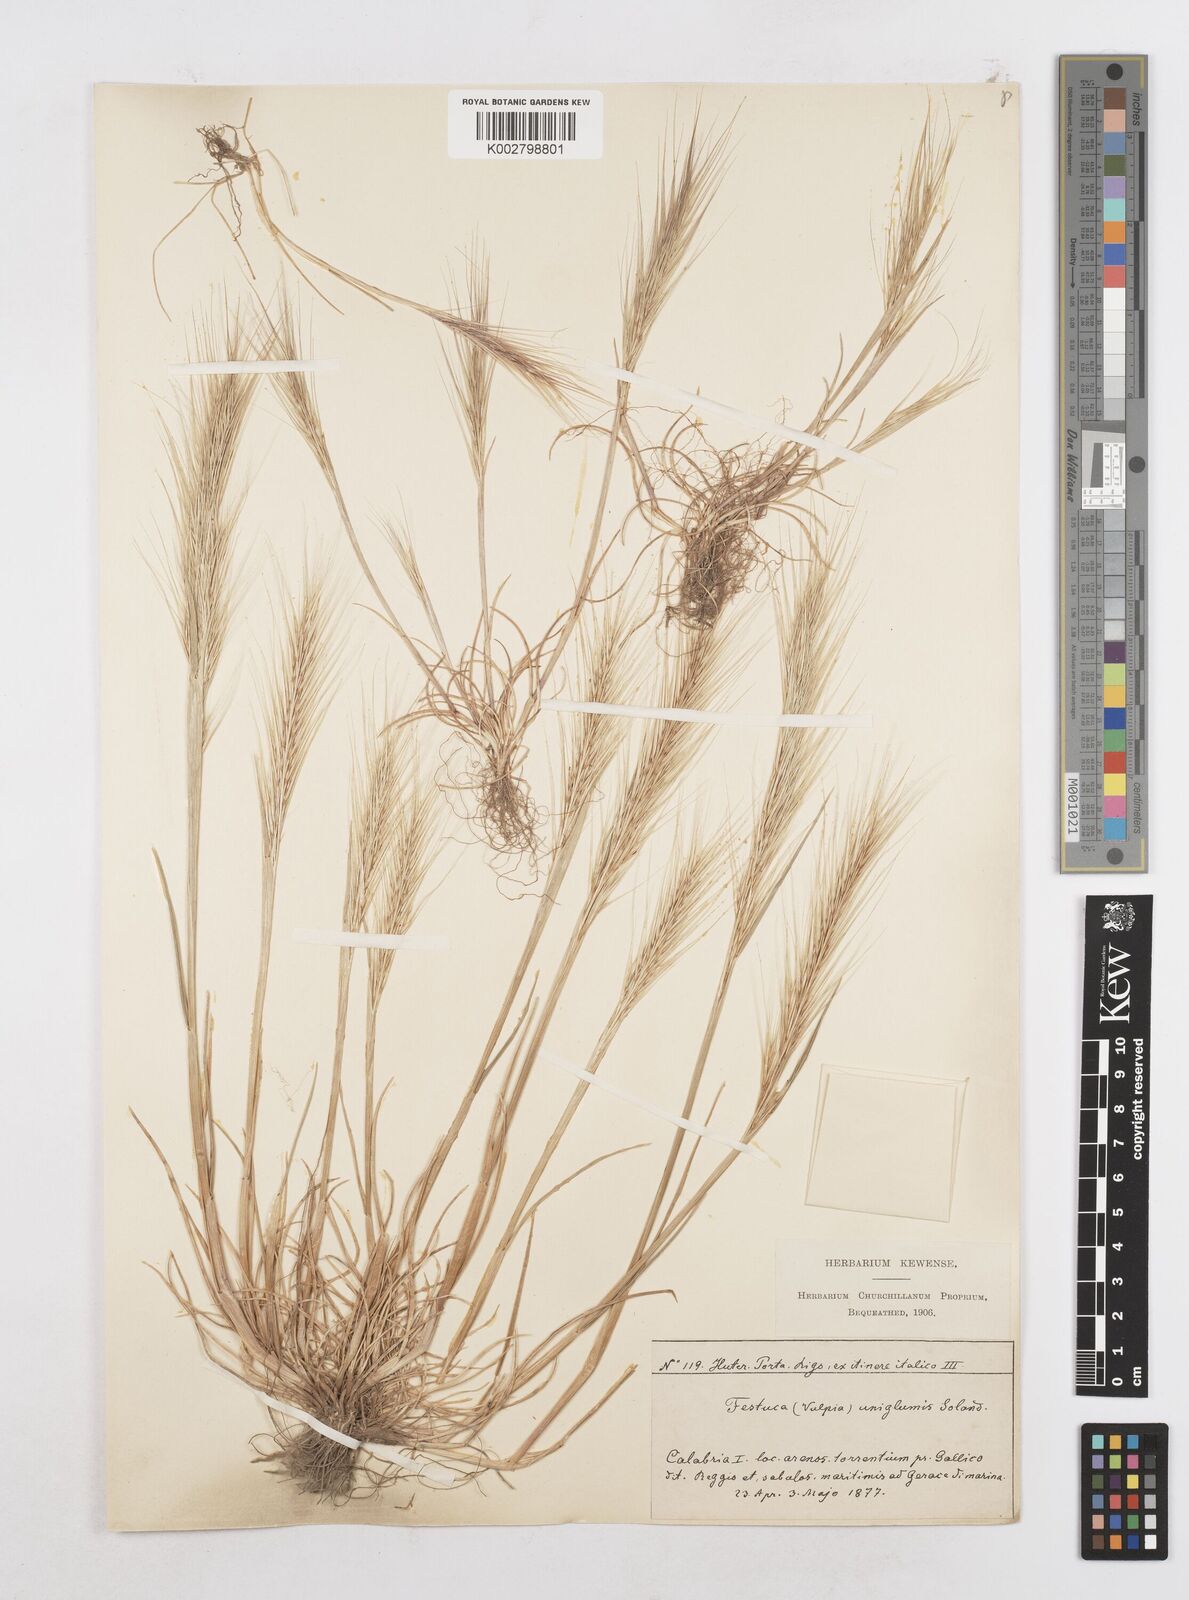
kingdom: Plantae
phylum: Tracheophyta
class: Liliopsida
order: Poales
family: Poaceae
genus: Festuca
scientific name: Festuca fasciculata
